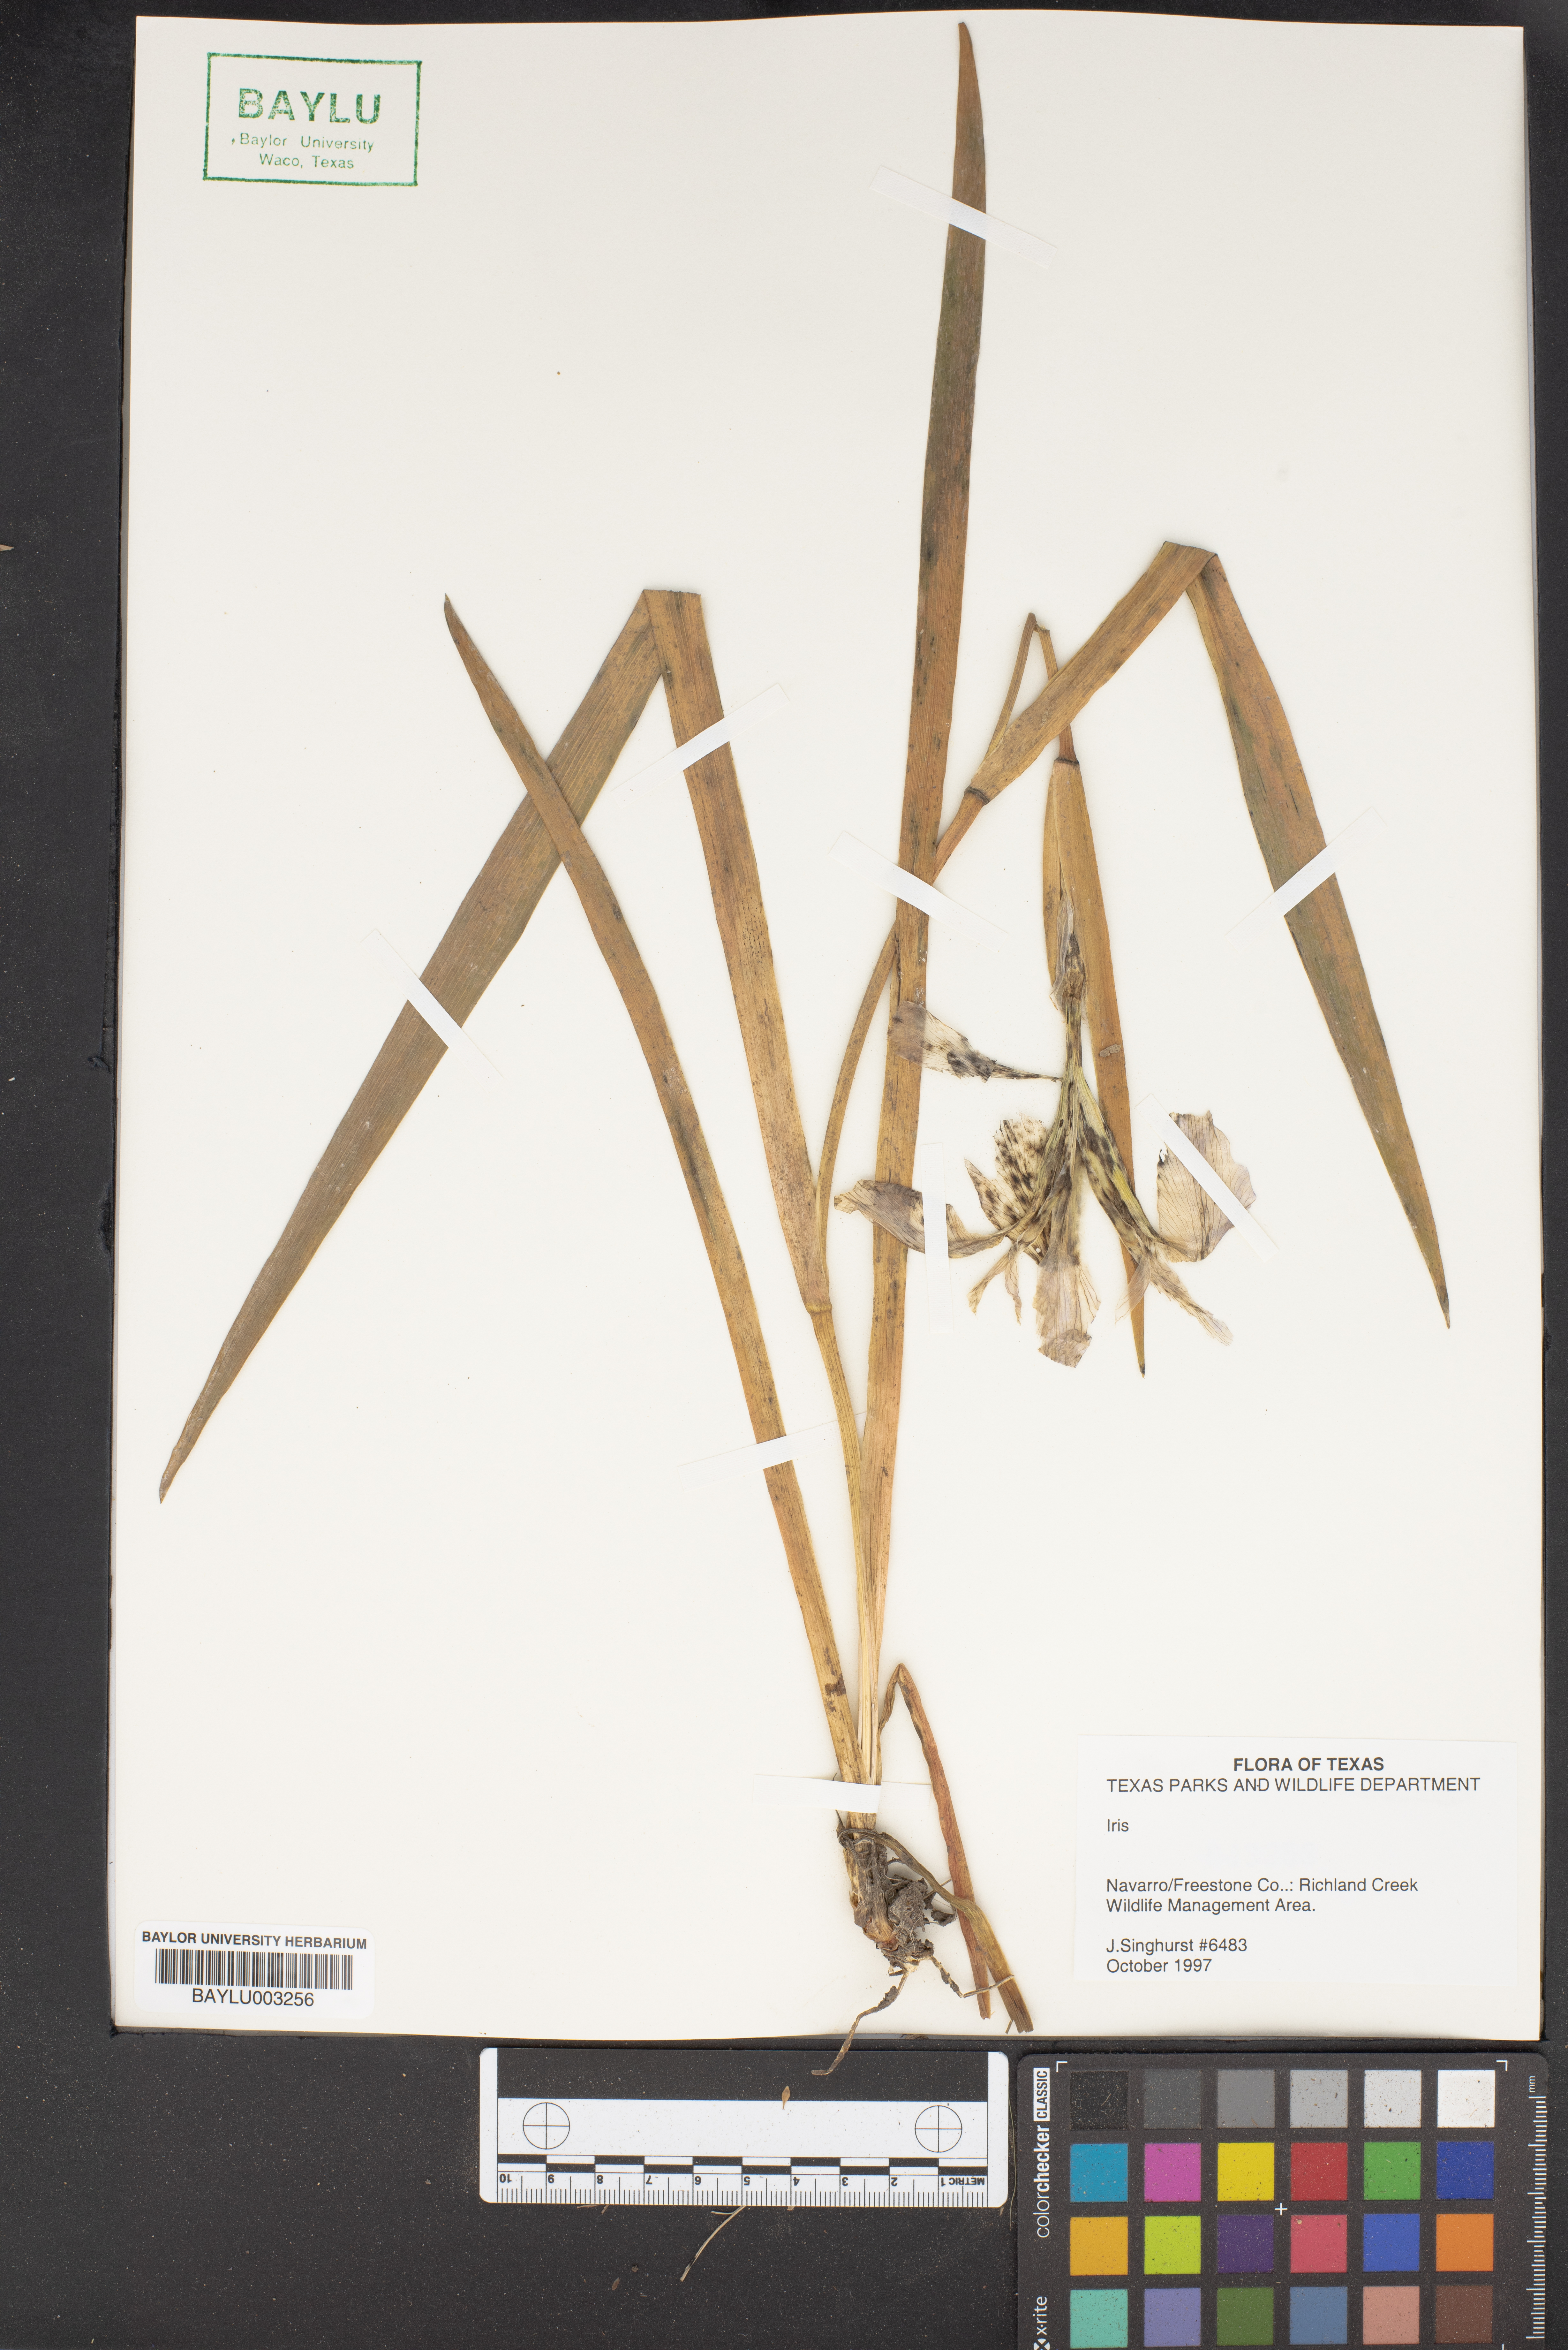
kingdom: Plantae
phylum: Tracheophyta
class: Liliopsida
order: Asparagales
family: Iridaceae
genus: Iris
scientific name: Iris
